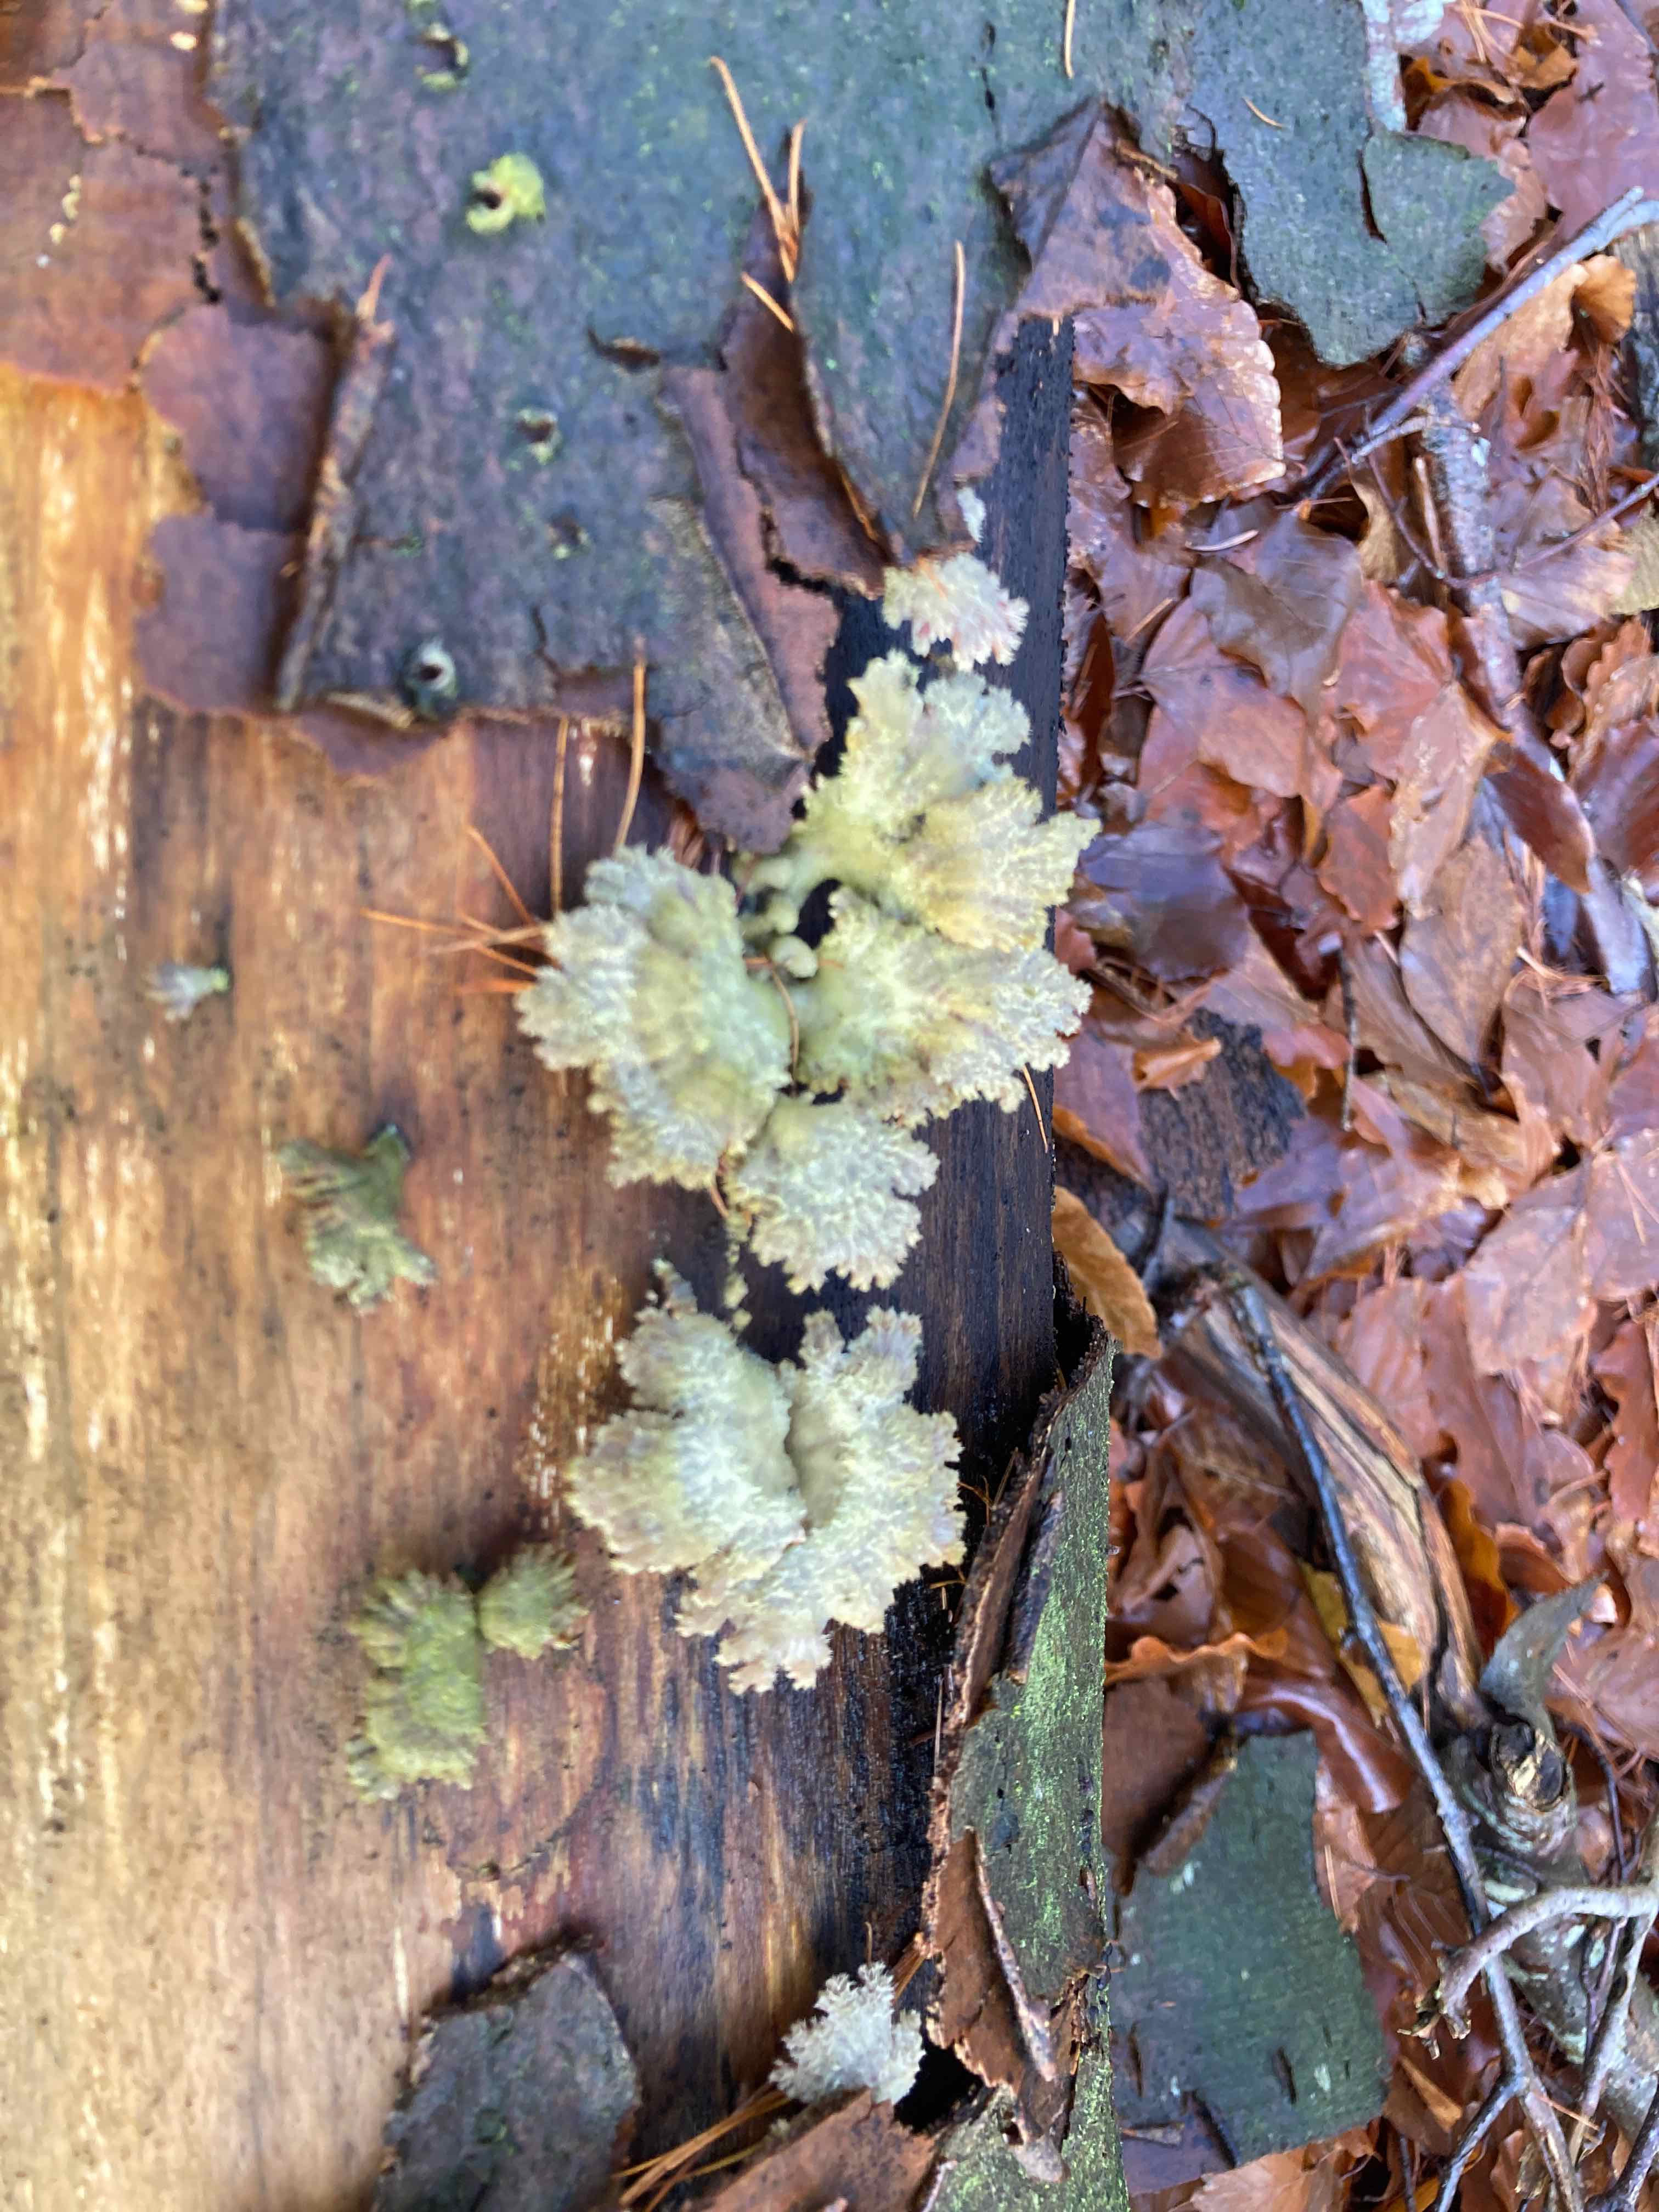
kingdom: Fungi
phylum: Basidiomycota
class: Agaricomycetes
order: Agaricales
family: Schizophyllaceae
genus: Schizophyllum
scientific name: Schizophyllum commune
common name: kløvblad
